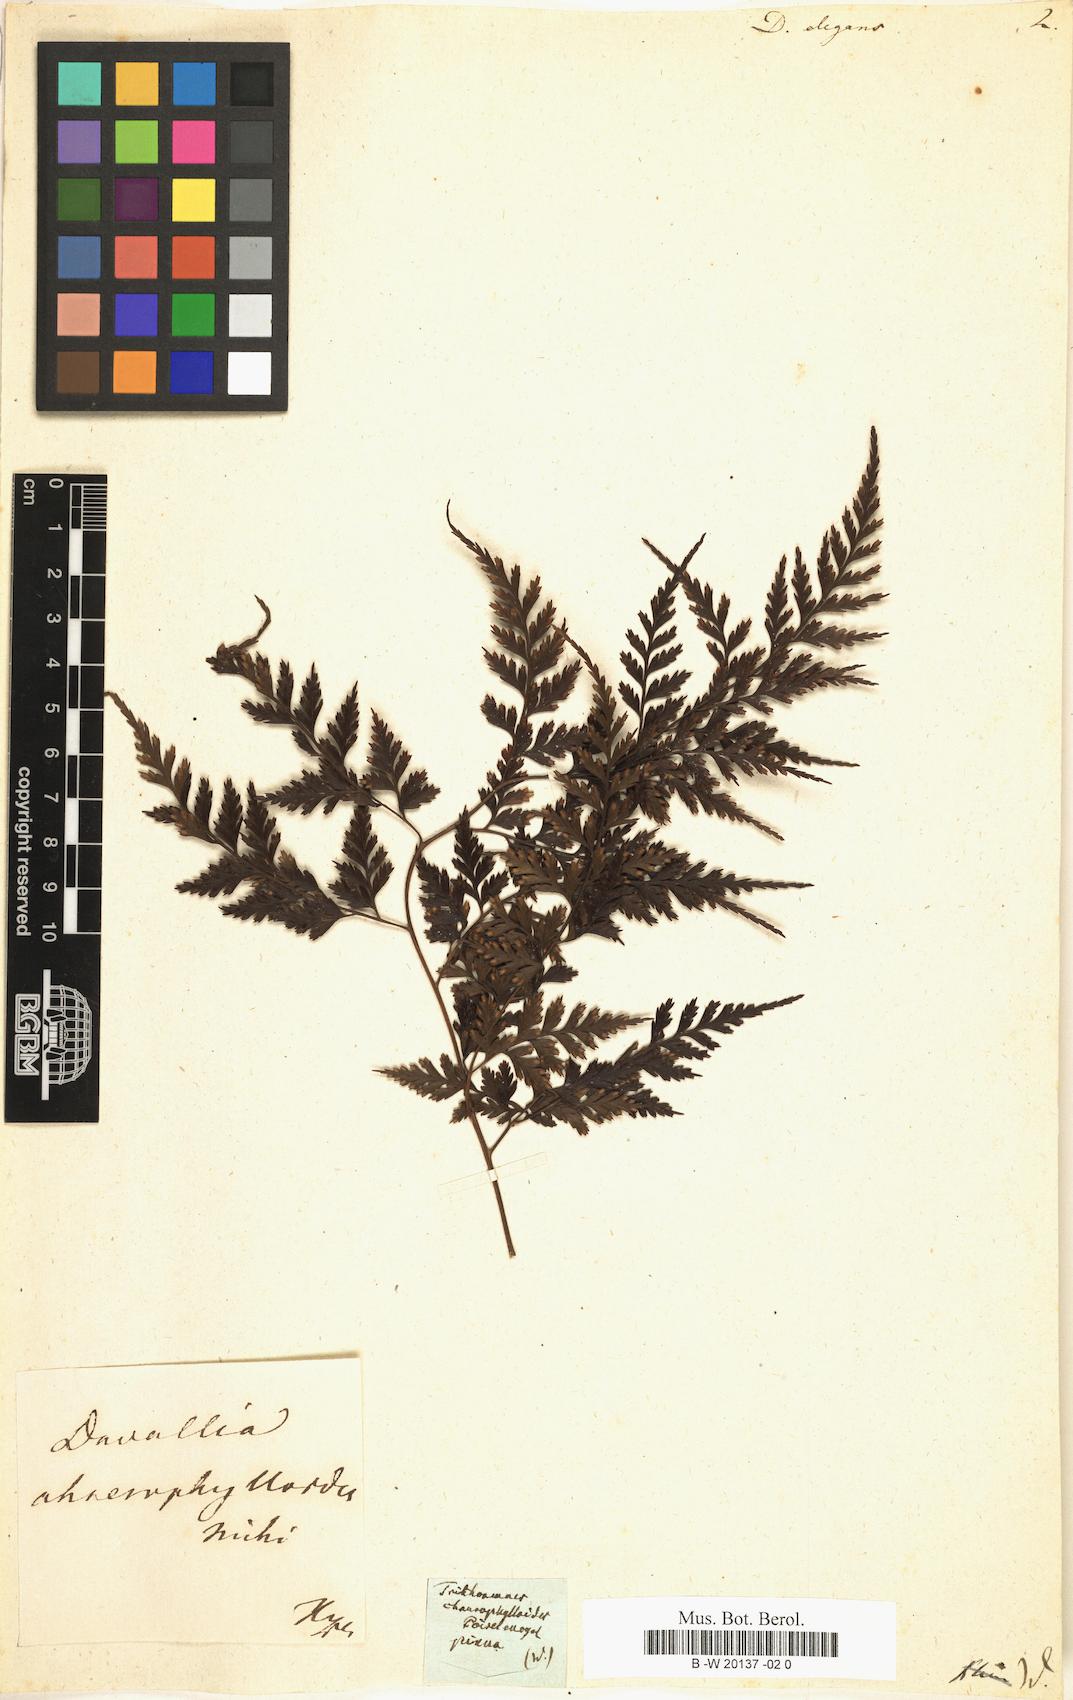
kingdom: Plantae
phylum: Tracheophyta
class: Polypodiopsida
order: Polypodiales
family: Davalliaceae
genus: Davallia
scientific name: Davallia
